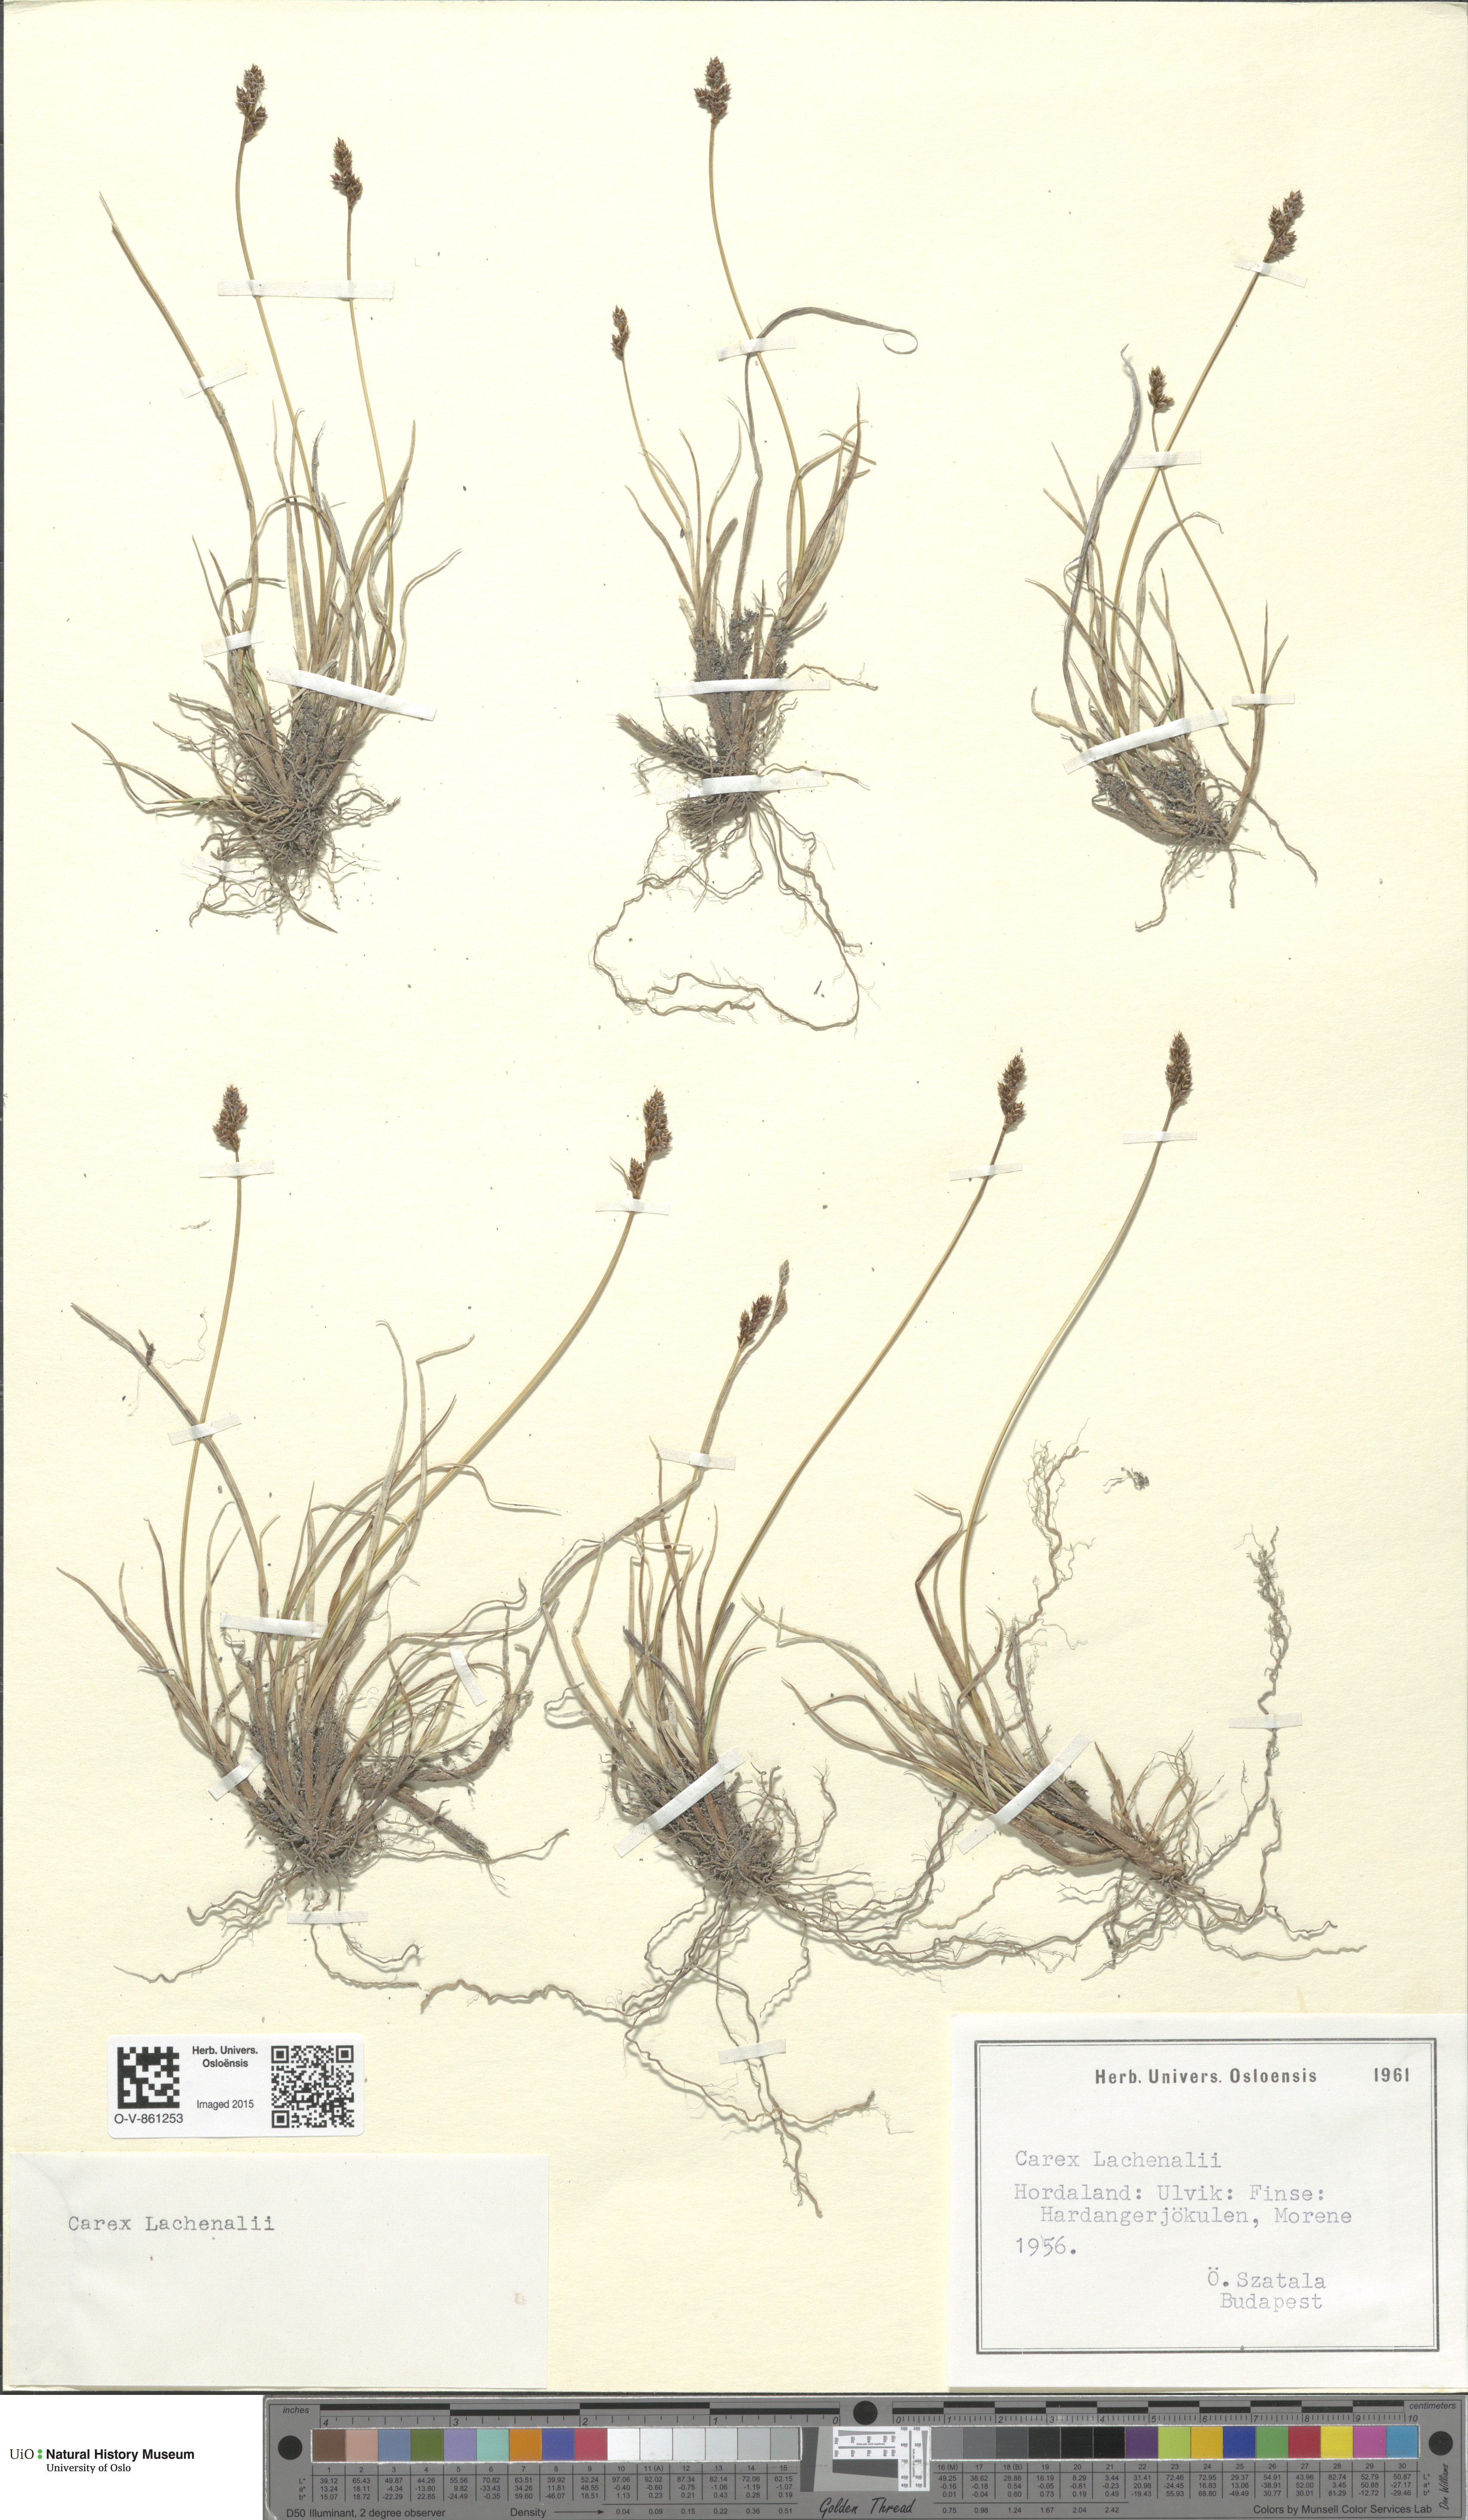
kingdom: Plantae
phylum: Tracheophyta
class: Liliopsida
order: Poales
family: Cyperaceae
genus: Carex
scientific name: Carex lachenalii
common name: Hare's-foot sedge
